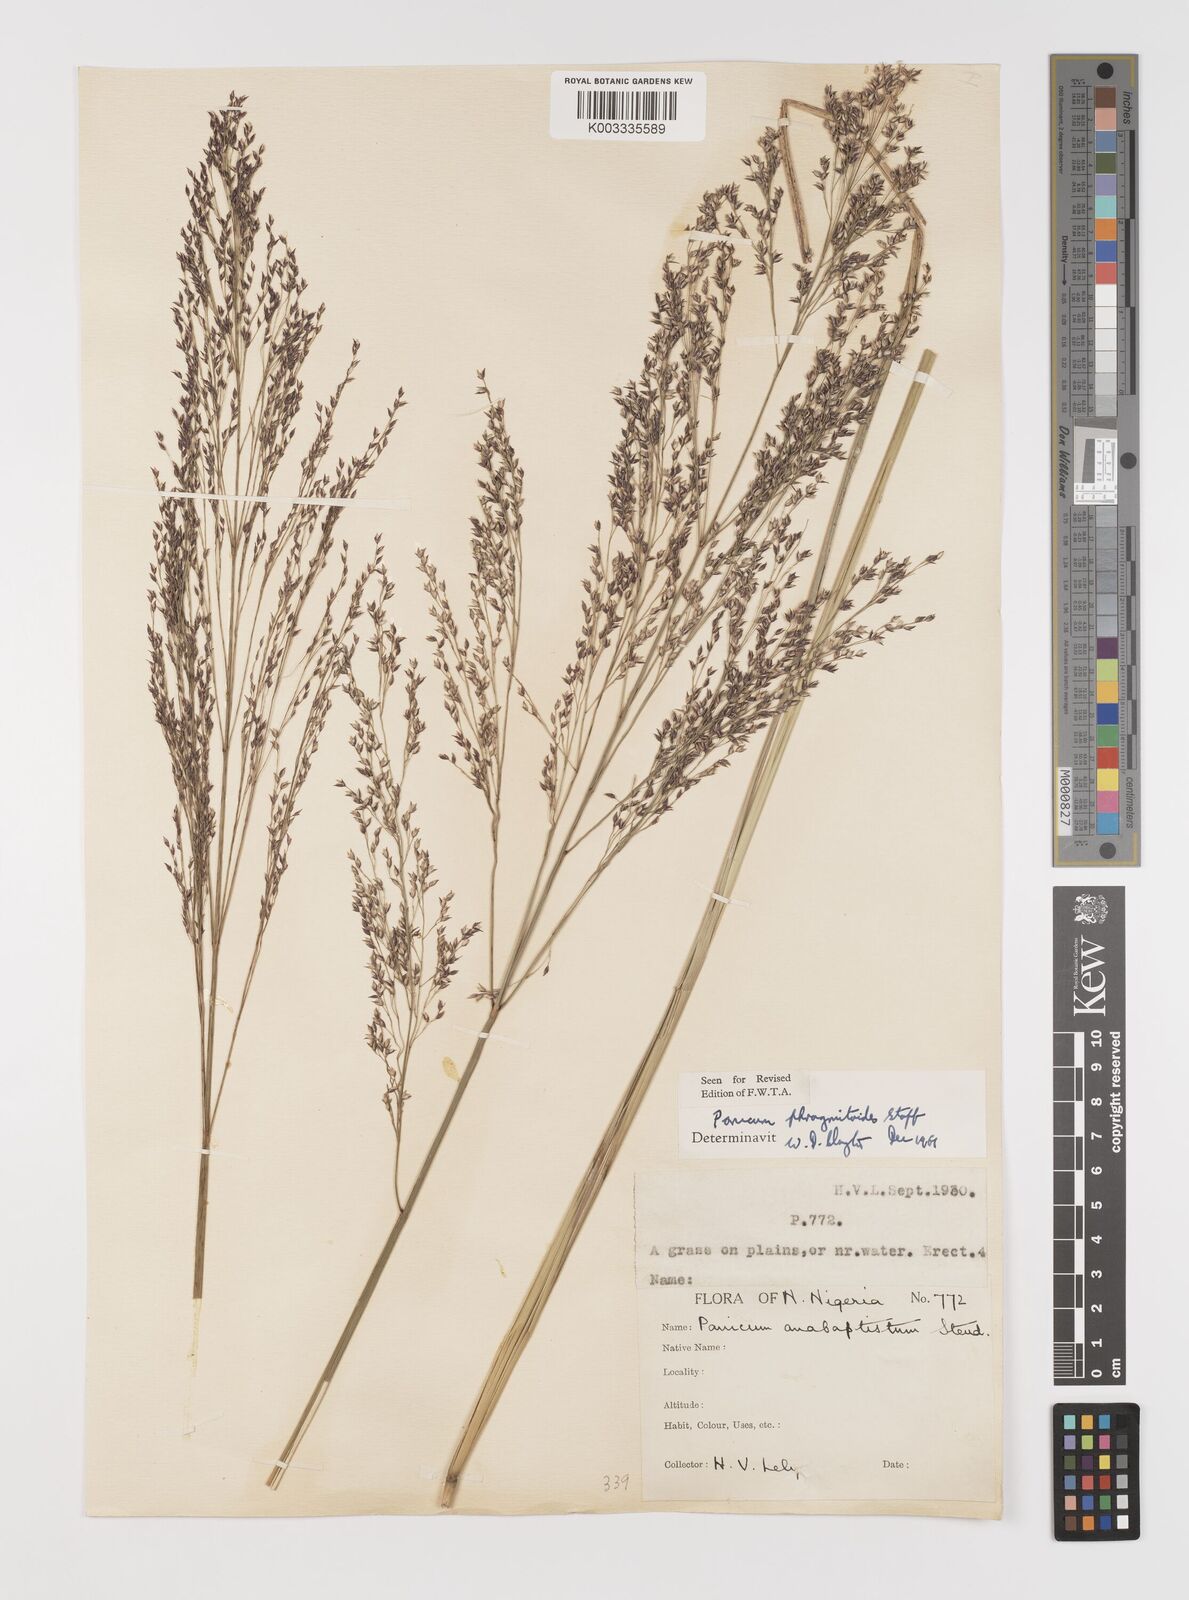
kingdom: Plantae
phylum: Tracheophyta
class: Liliopsida
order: Poales
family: Poaceae
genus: Panicum
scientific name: Panicum phragmitoides
